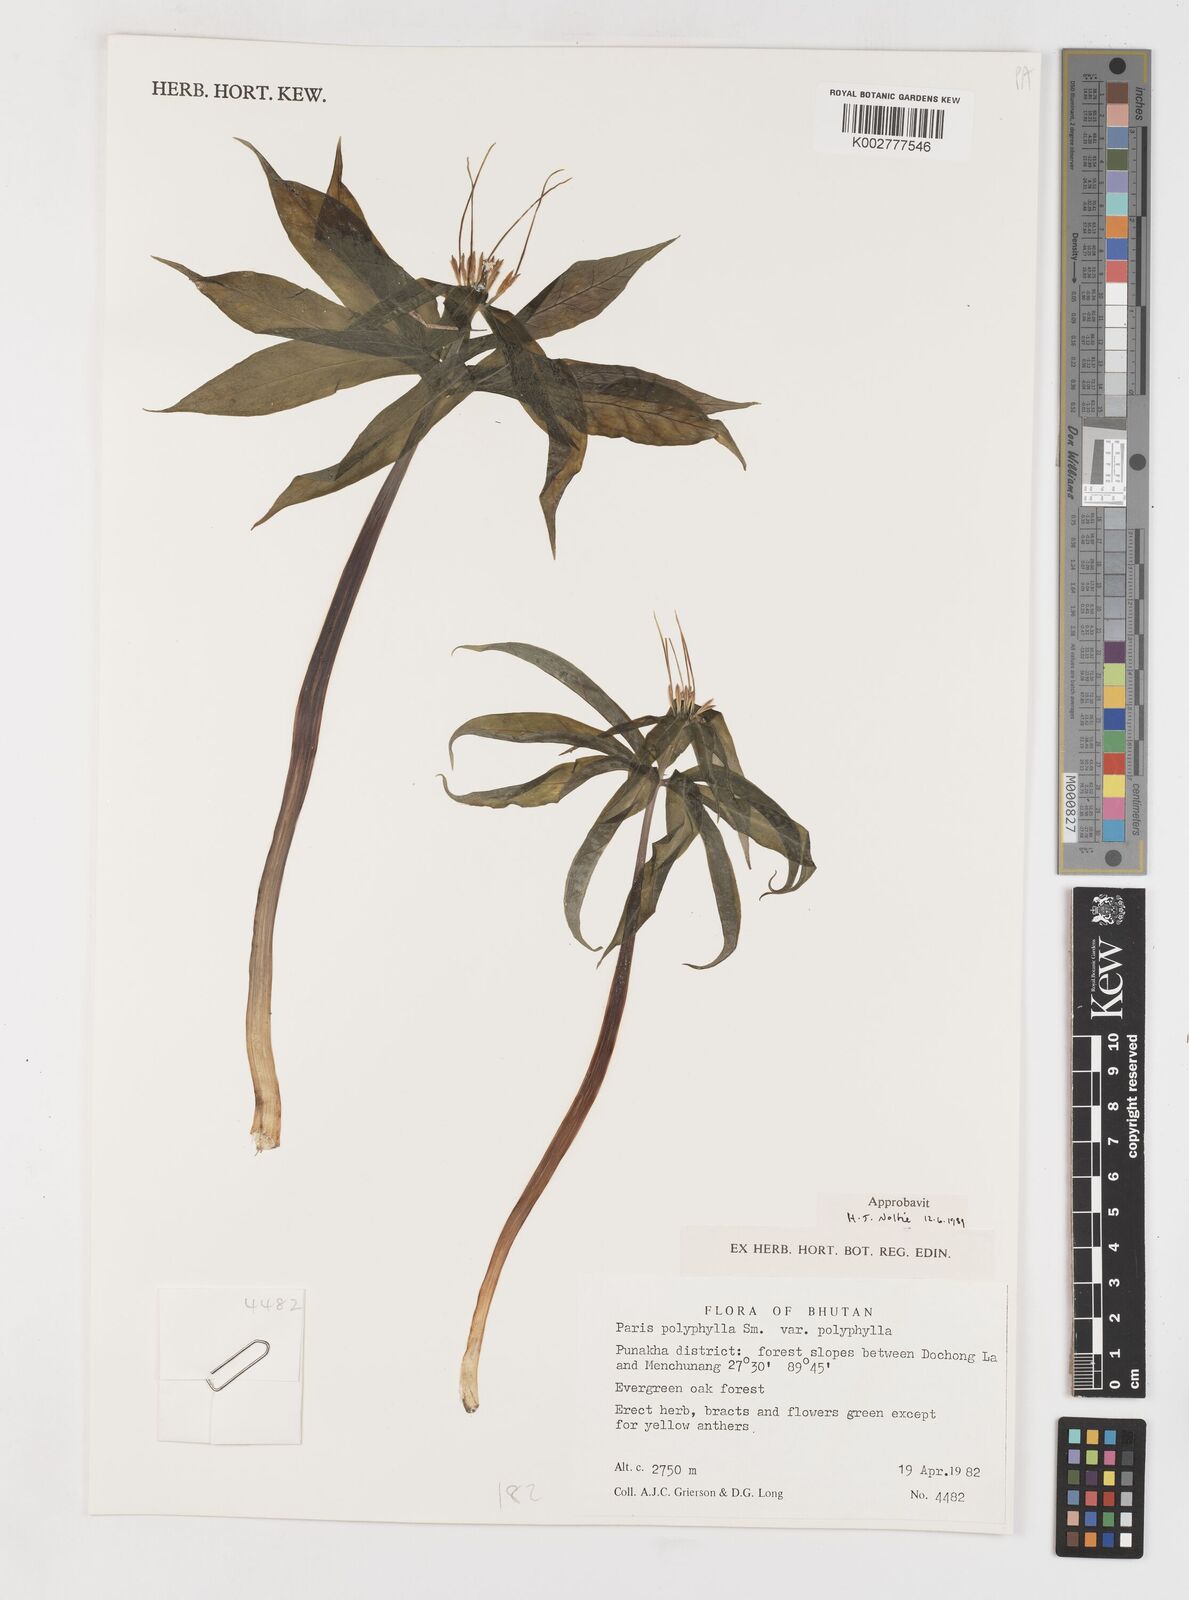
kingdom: Plantae
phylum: Tracheophyta
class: Liliopsida
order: Liliales
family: Melanthiaceae
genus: Paris
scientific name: Paris polyphylla
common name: Love apple
